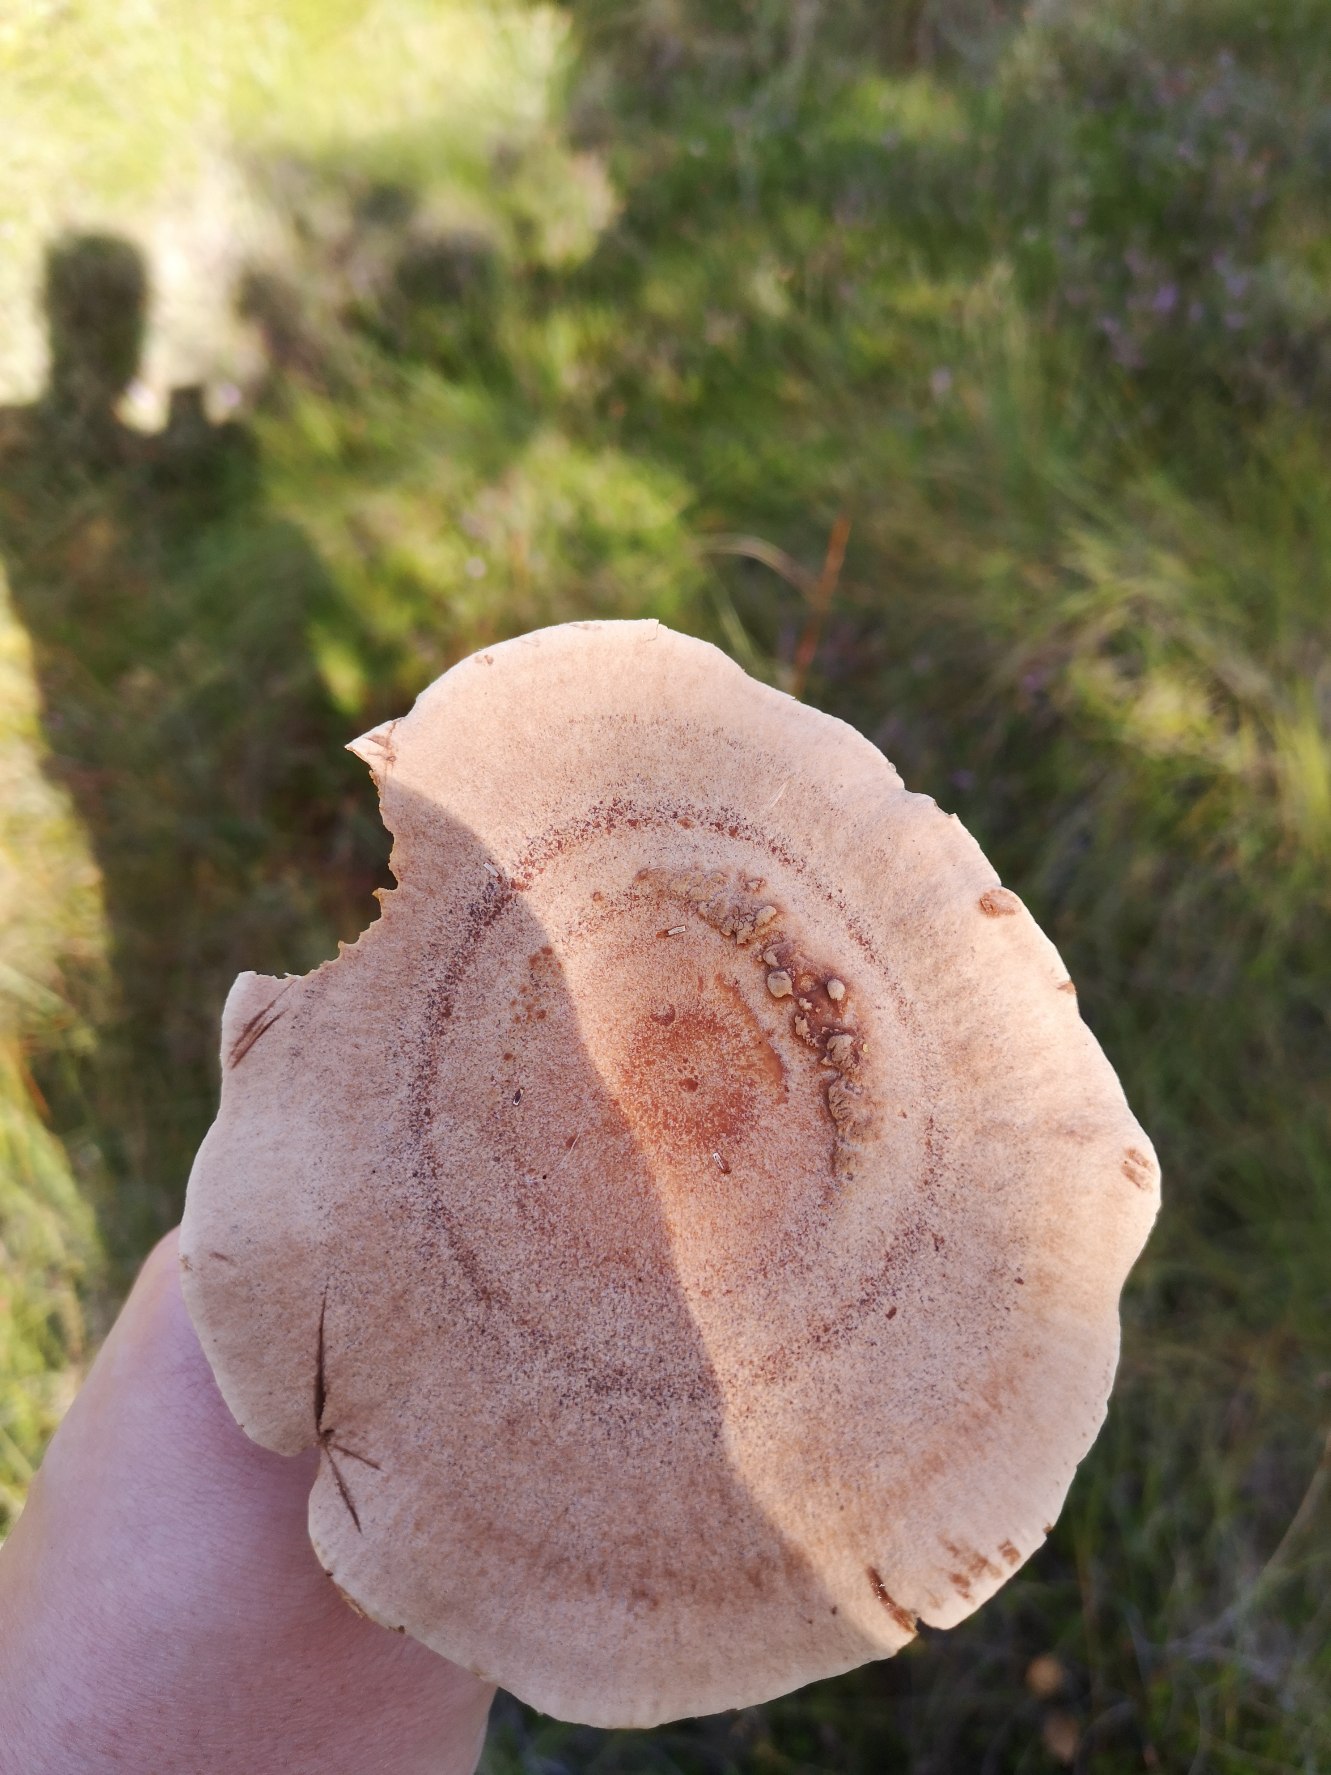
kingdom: Fungi
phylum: Basidiomycota
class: Agaricomycetes
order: Russulales
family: Russulaceae
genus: Lactarius
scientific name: Lactarius helvus
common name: Mose-mælkehat
